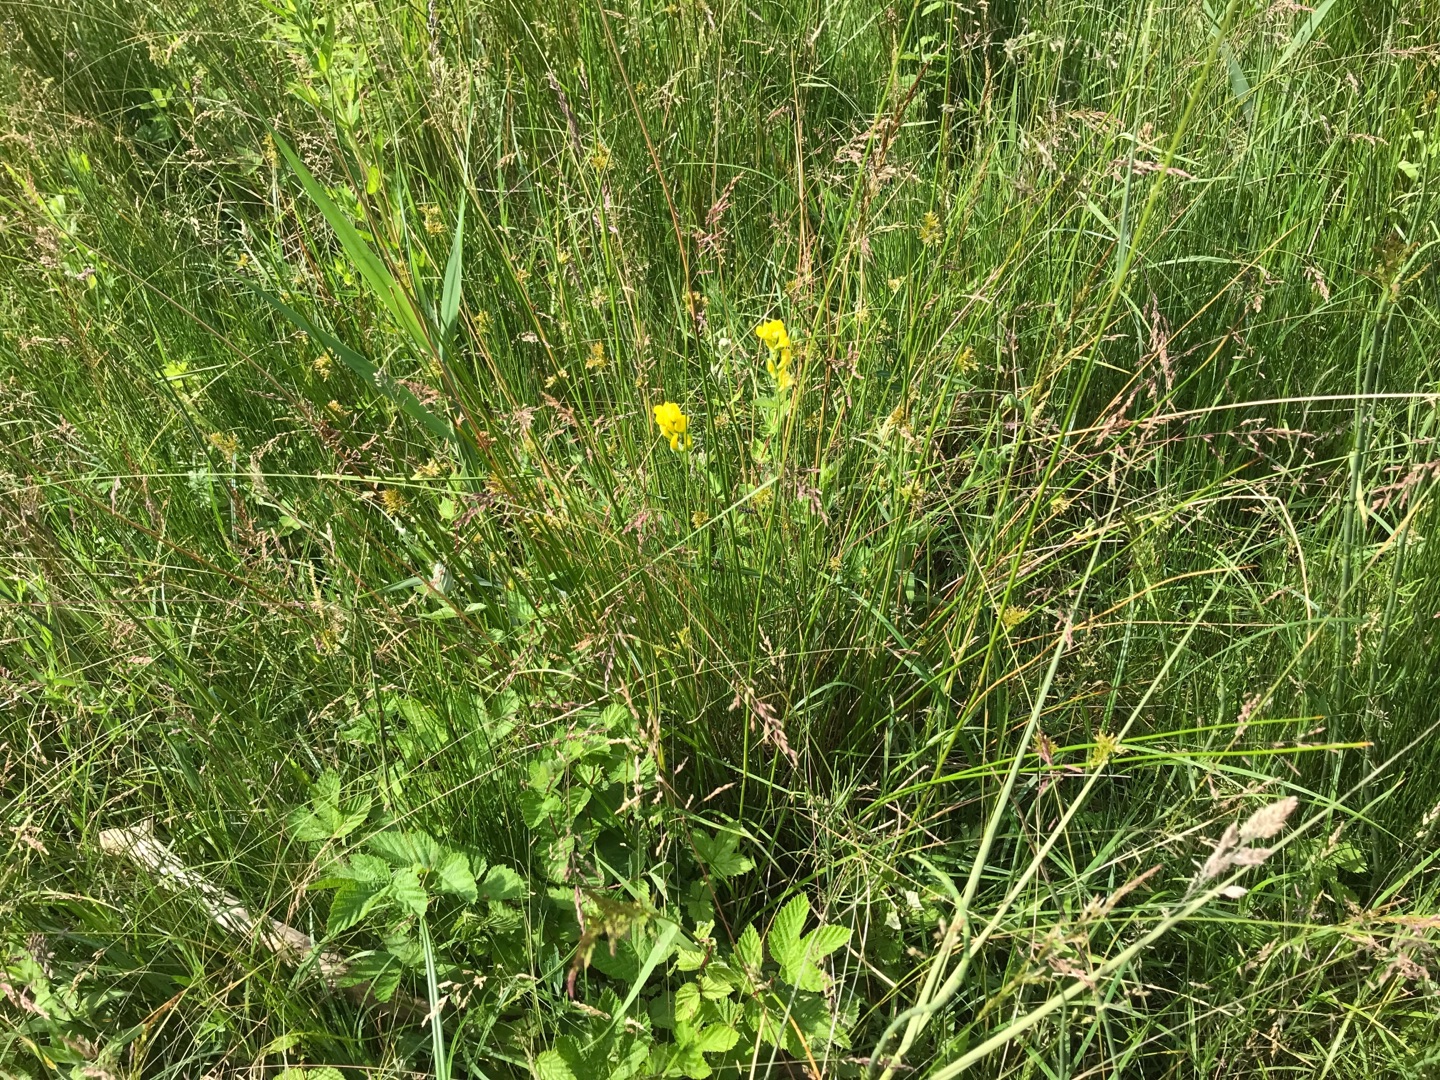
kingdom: Plantae
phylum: Tracheophyta
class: Magnoliopsida
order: Fabales
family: Fabaceae
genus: Lathyrus
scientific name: Lathyrus pratensis
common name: Gul fladbælg
